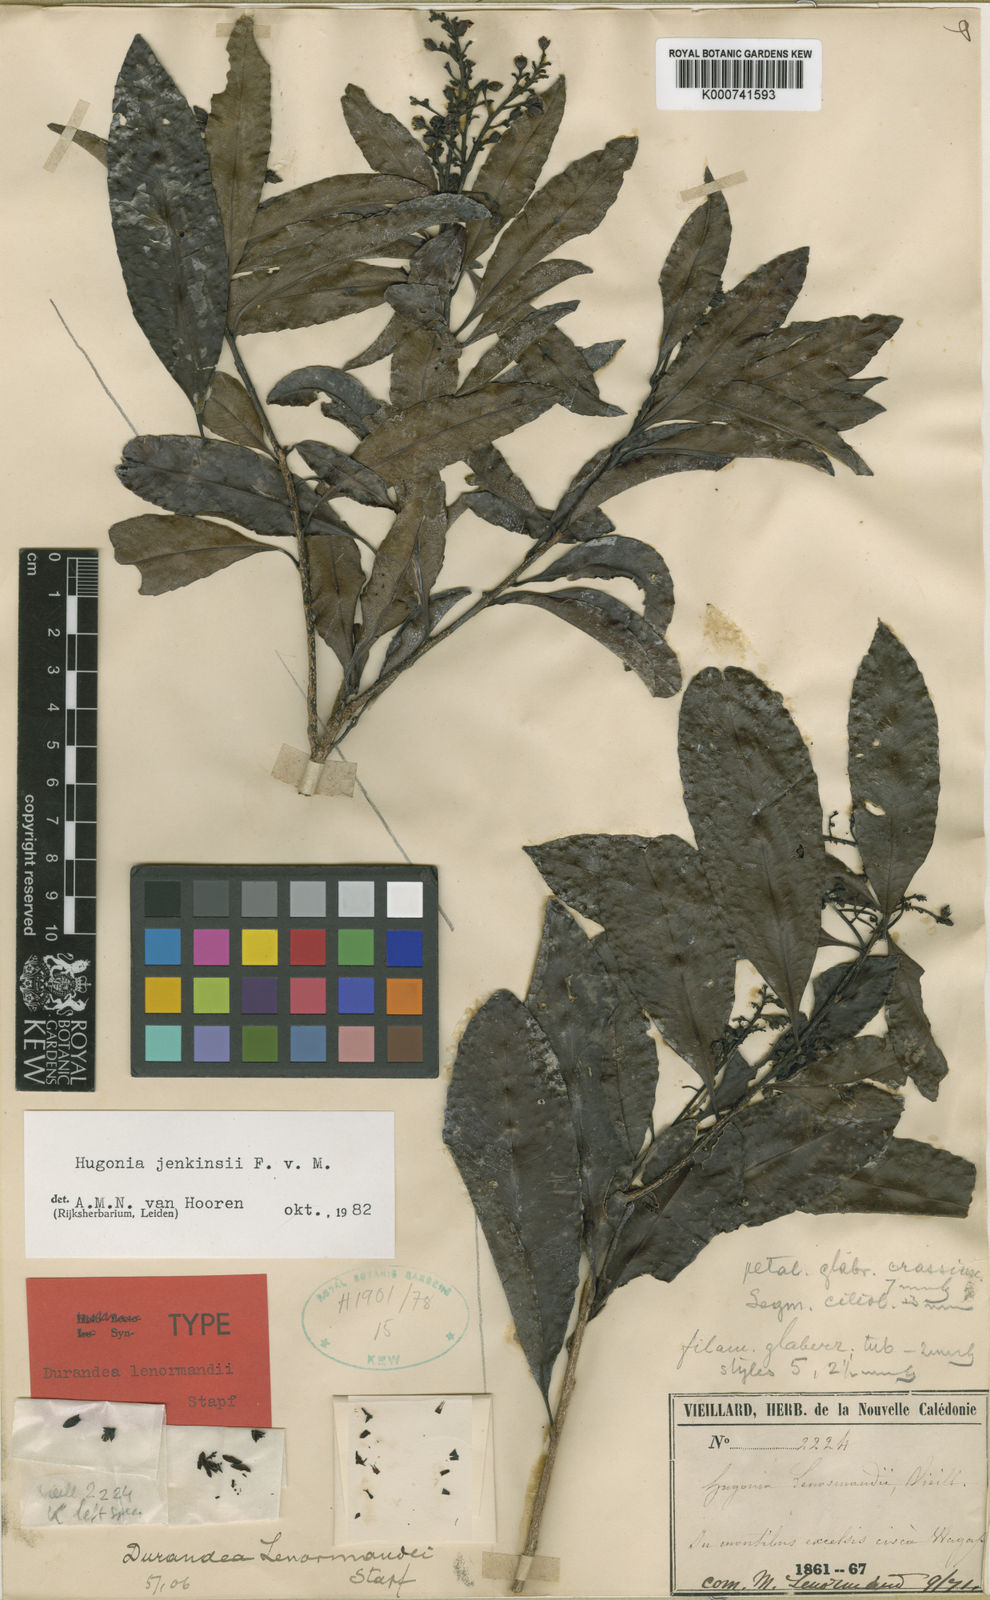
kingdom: Plantae
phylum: Tracheophyta
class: Magnoliopsida
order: Malpighiales
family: Linaceae
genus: Durandea
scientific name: Durandea jenkinsii
